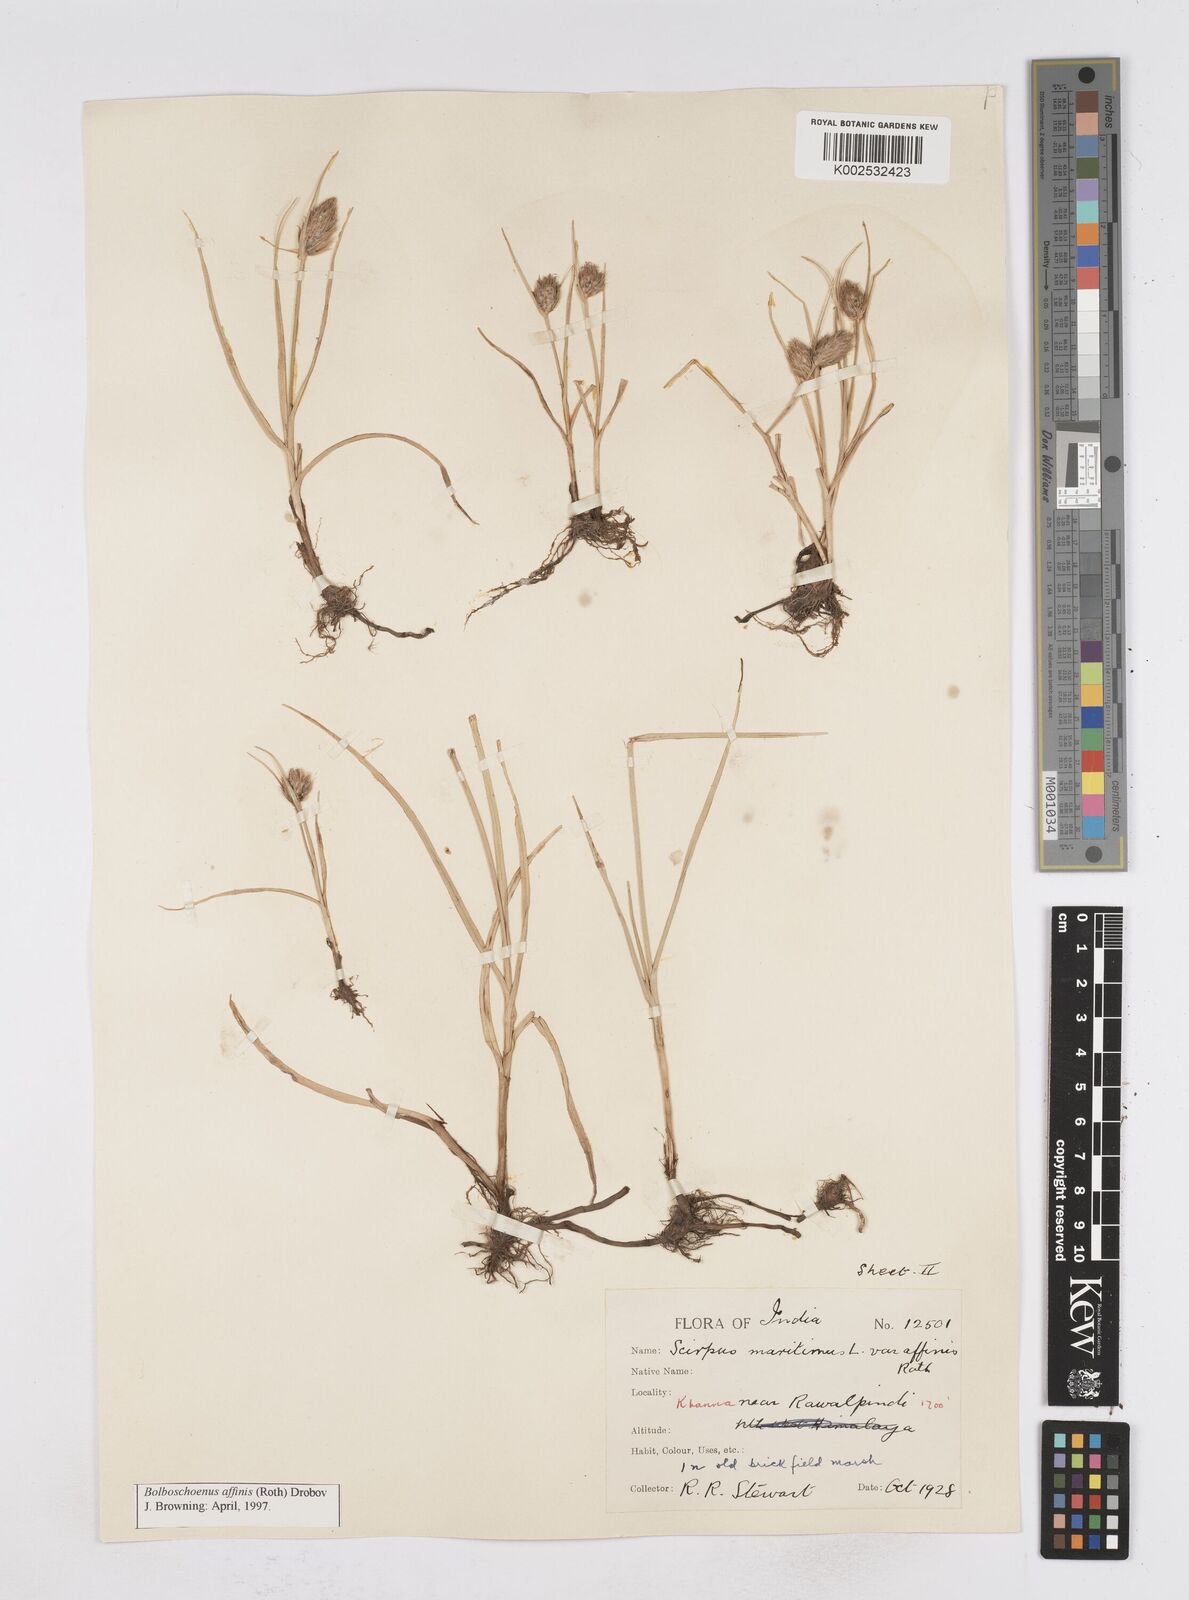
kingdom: Plantae
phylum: Tracheophyta
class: Liliopsida
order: Poales
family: Cyperaceae
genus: Bolboschoenus
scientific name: Bolboschoenus maritimus
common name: Sea club-rush
